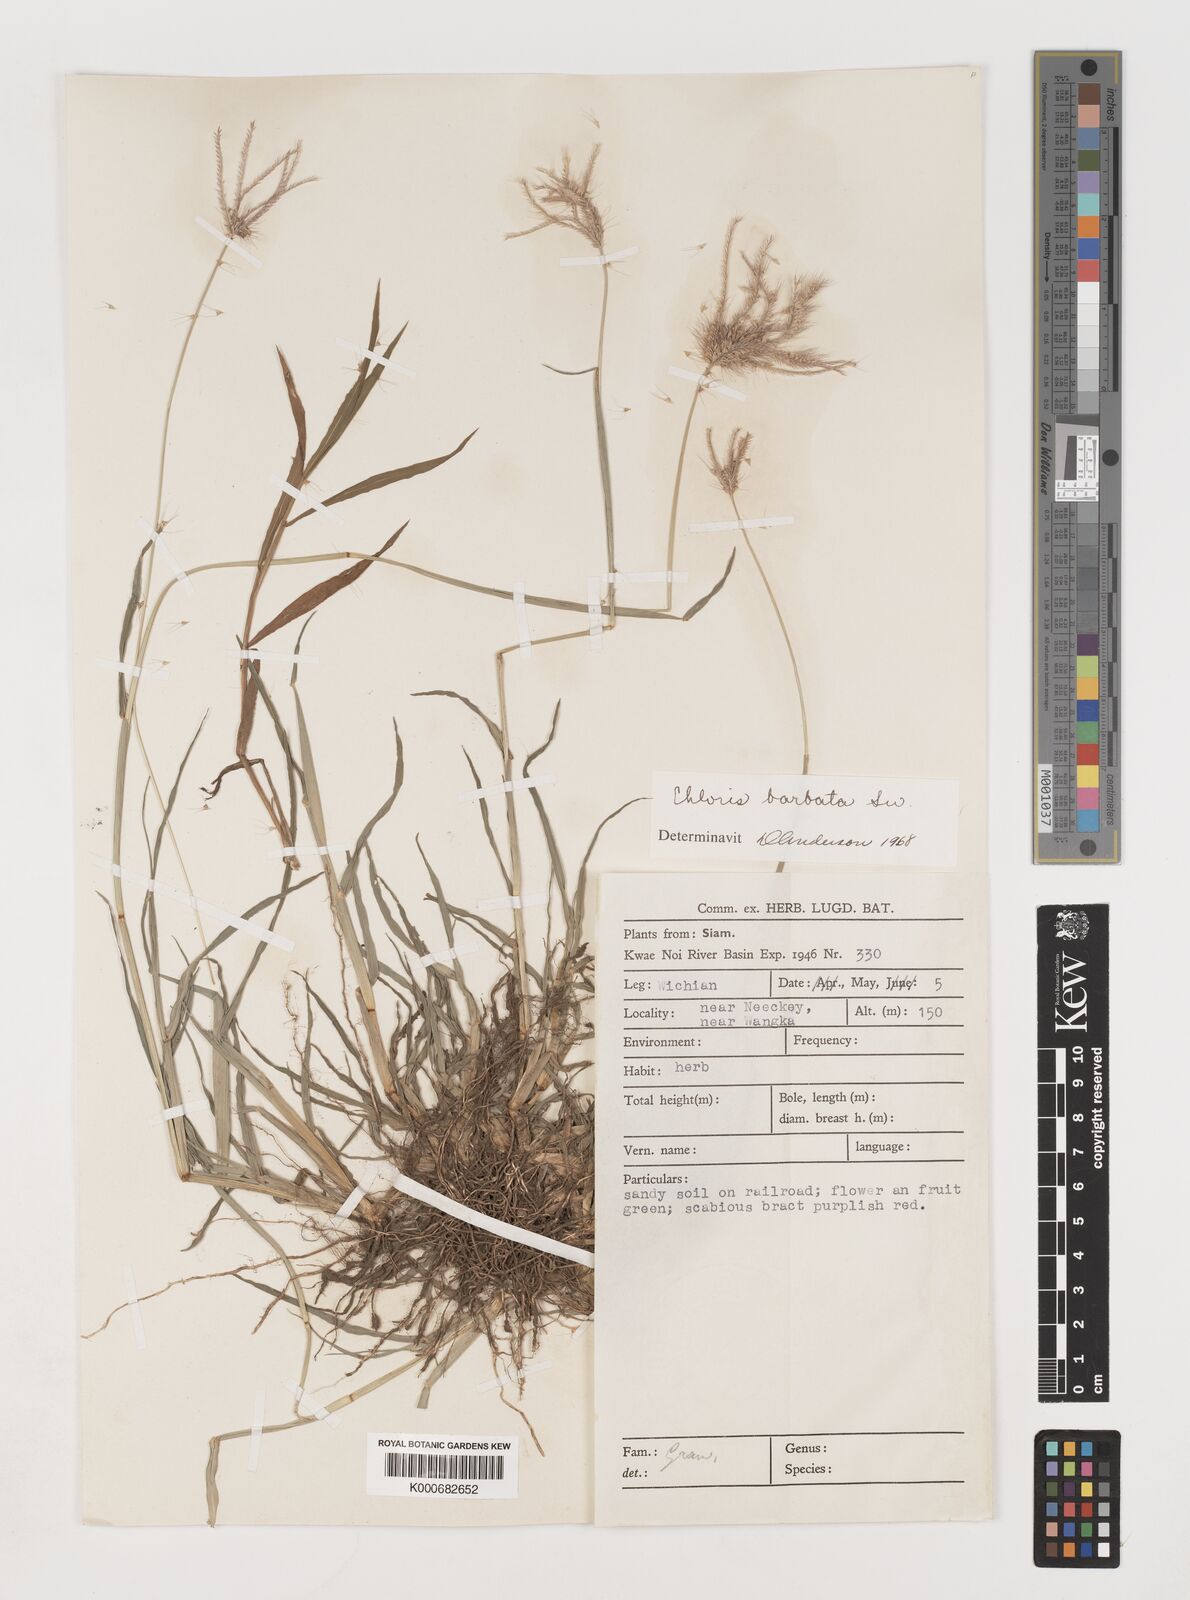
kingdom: Plantae
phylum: Tracheophyta
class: Liliopsida
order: Poales
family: Poaceae
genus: Chloris
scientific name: Chloris barbata
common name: Swollen fingergrass
